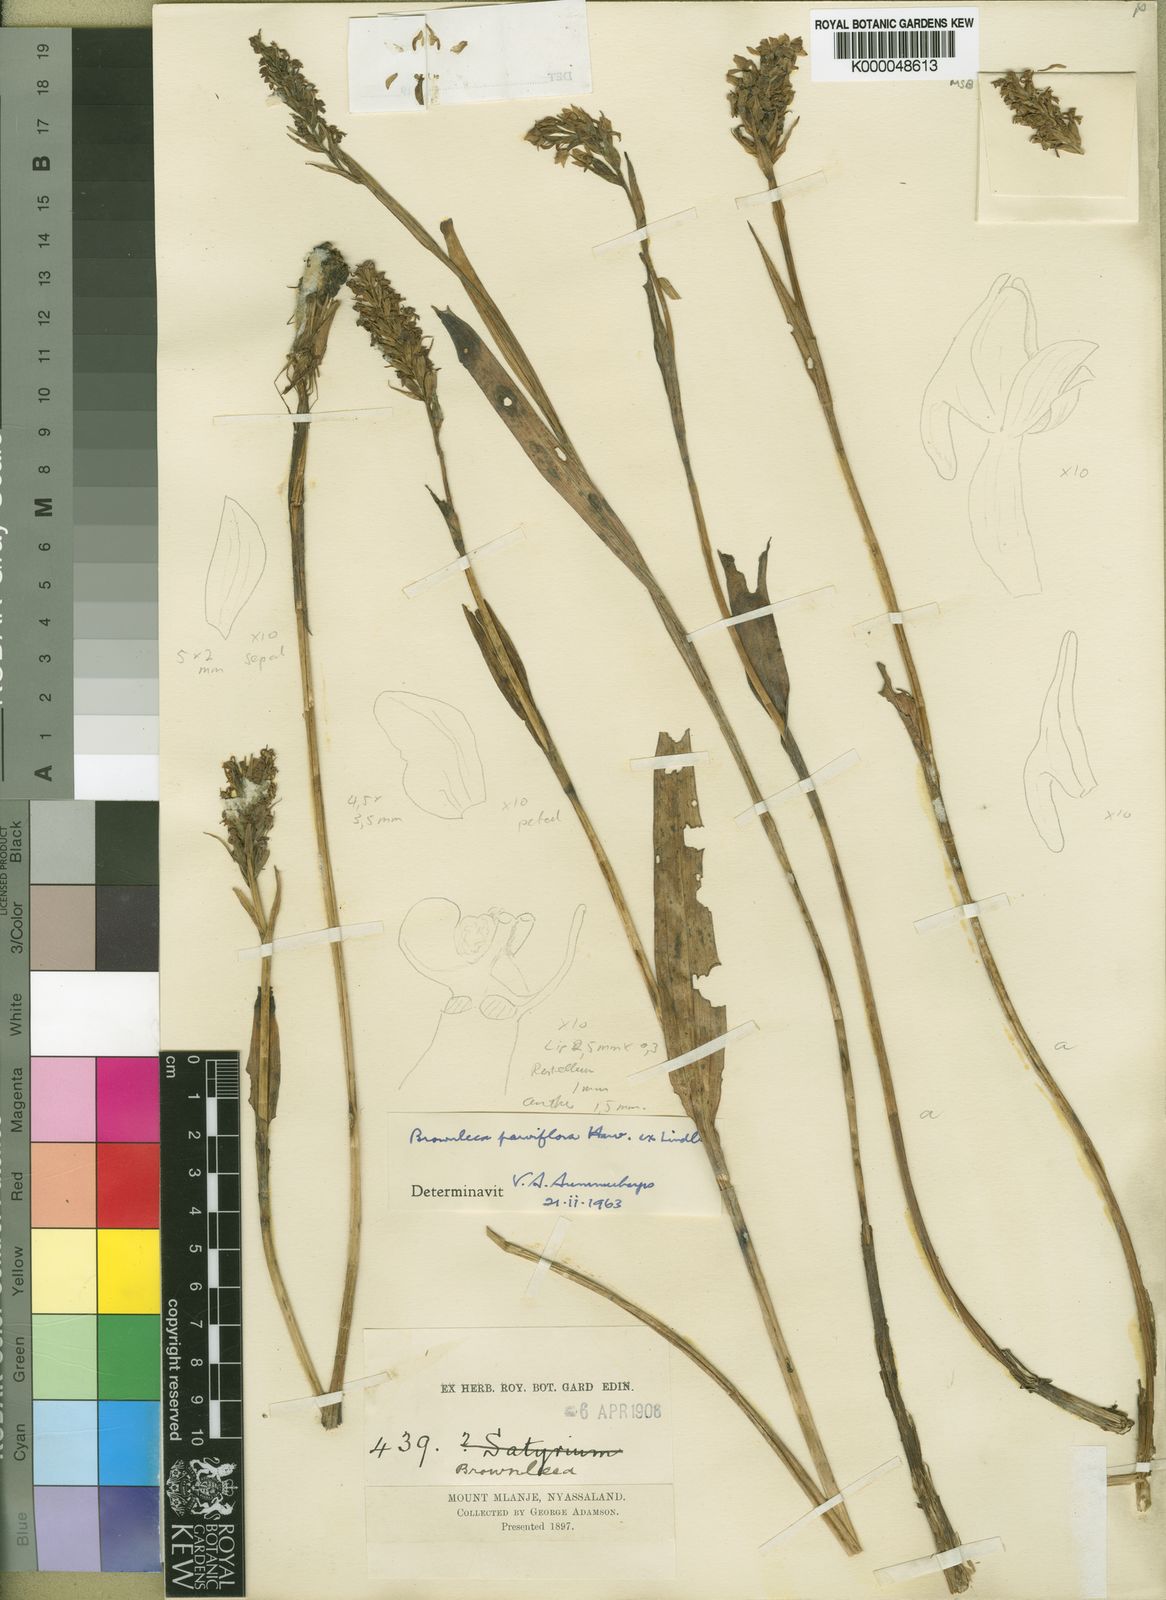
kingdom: Plantae
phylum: Tracheophyta
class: Liliopsida
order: Asparagales
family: Orchidaceae
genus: Brownleea
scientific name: Brownleea mulanjiensis
